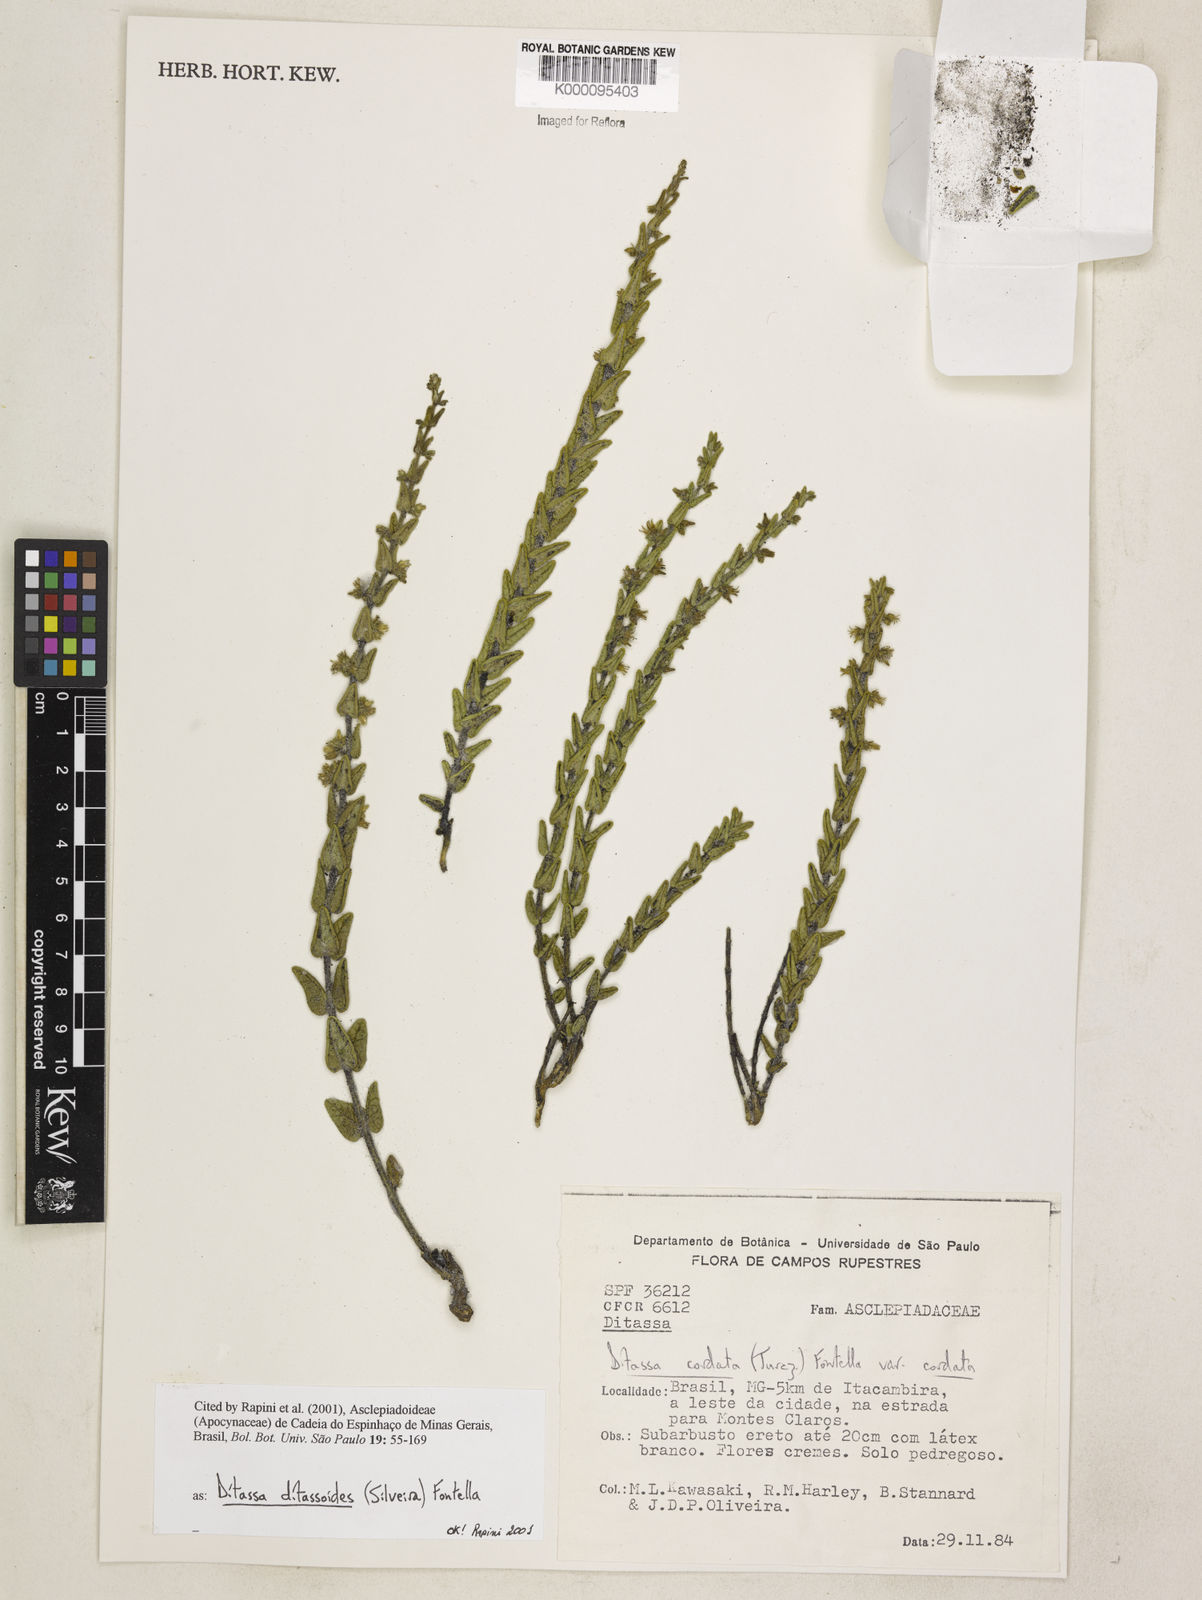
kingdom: Plantae
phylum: Tracheophyta
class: Magnoliopsida
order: Gentianales
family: Apocynaceae
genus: Minaria
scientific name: Minaria ditassoides
